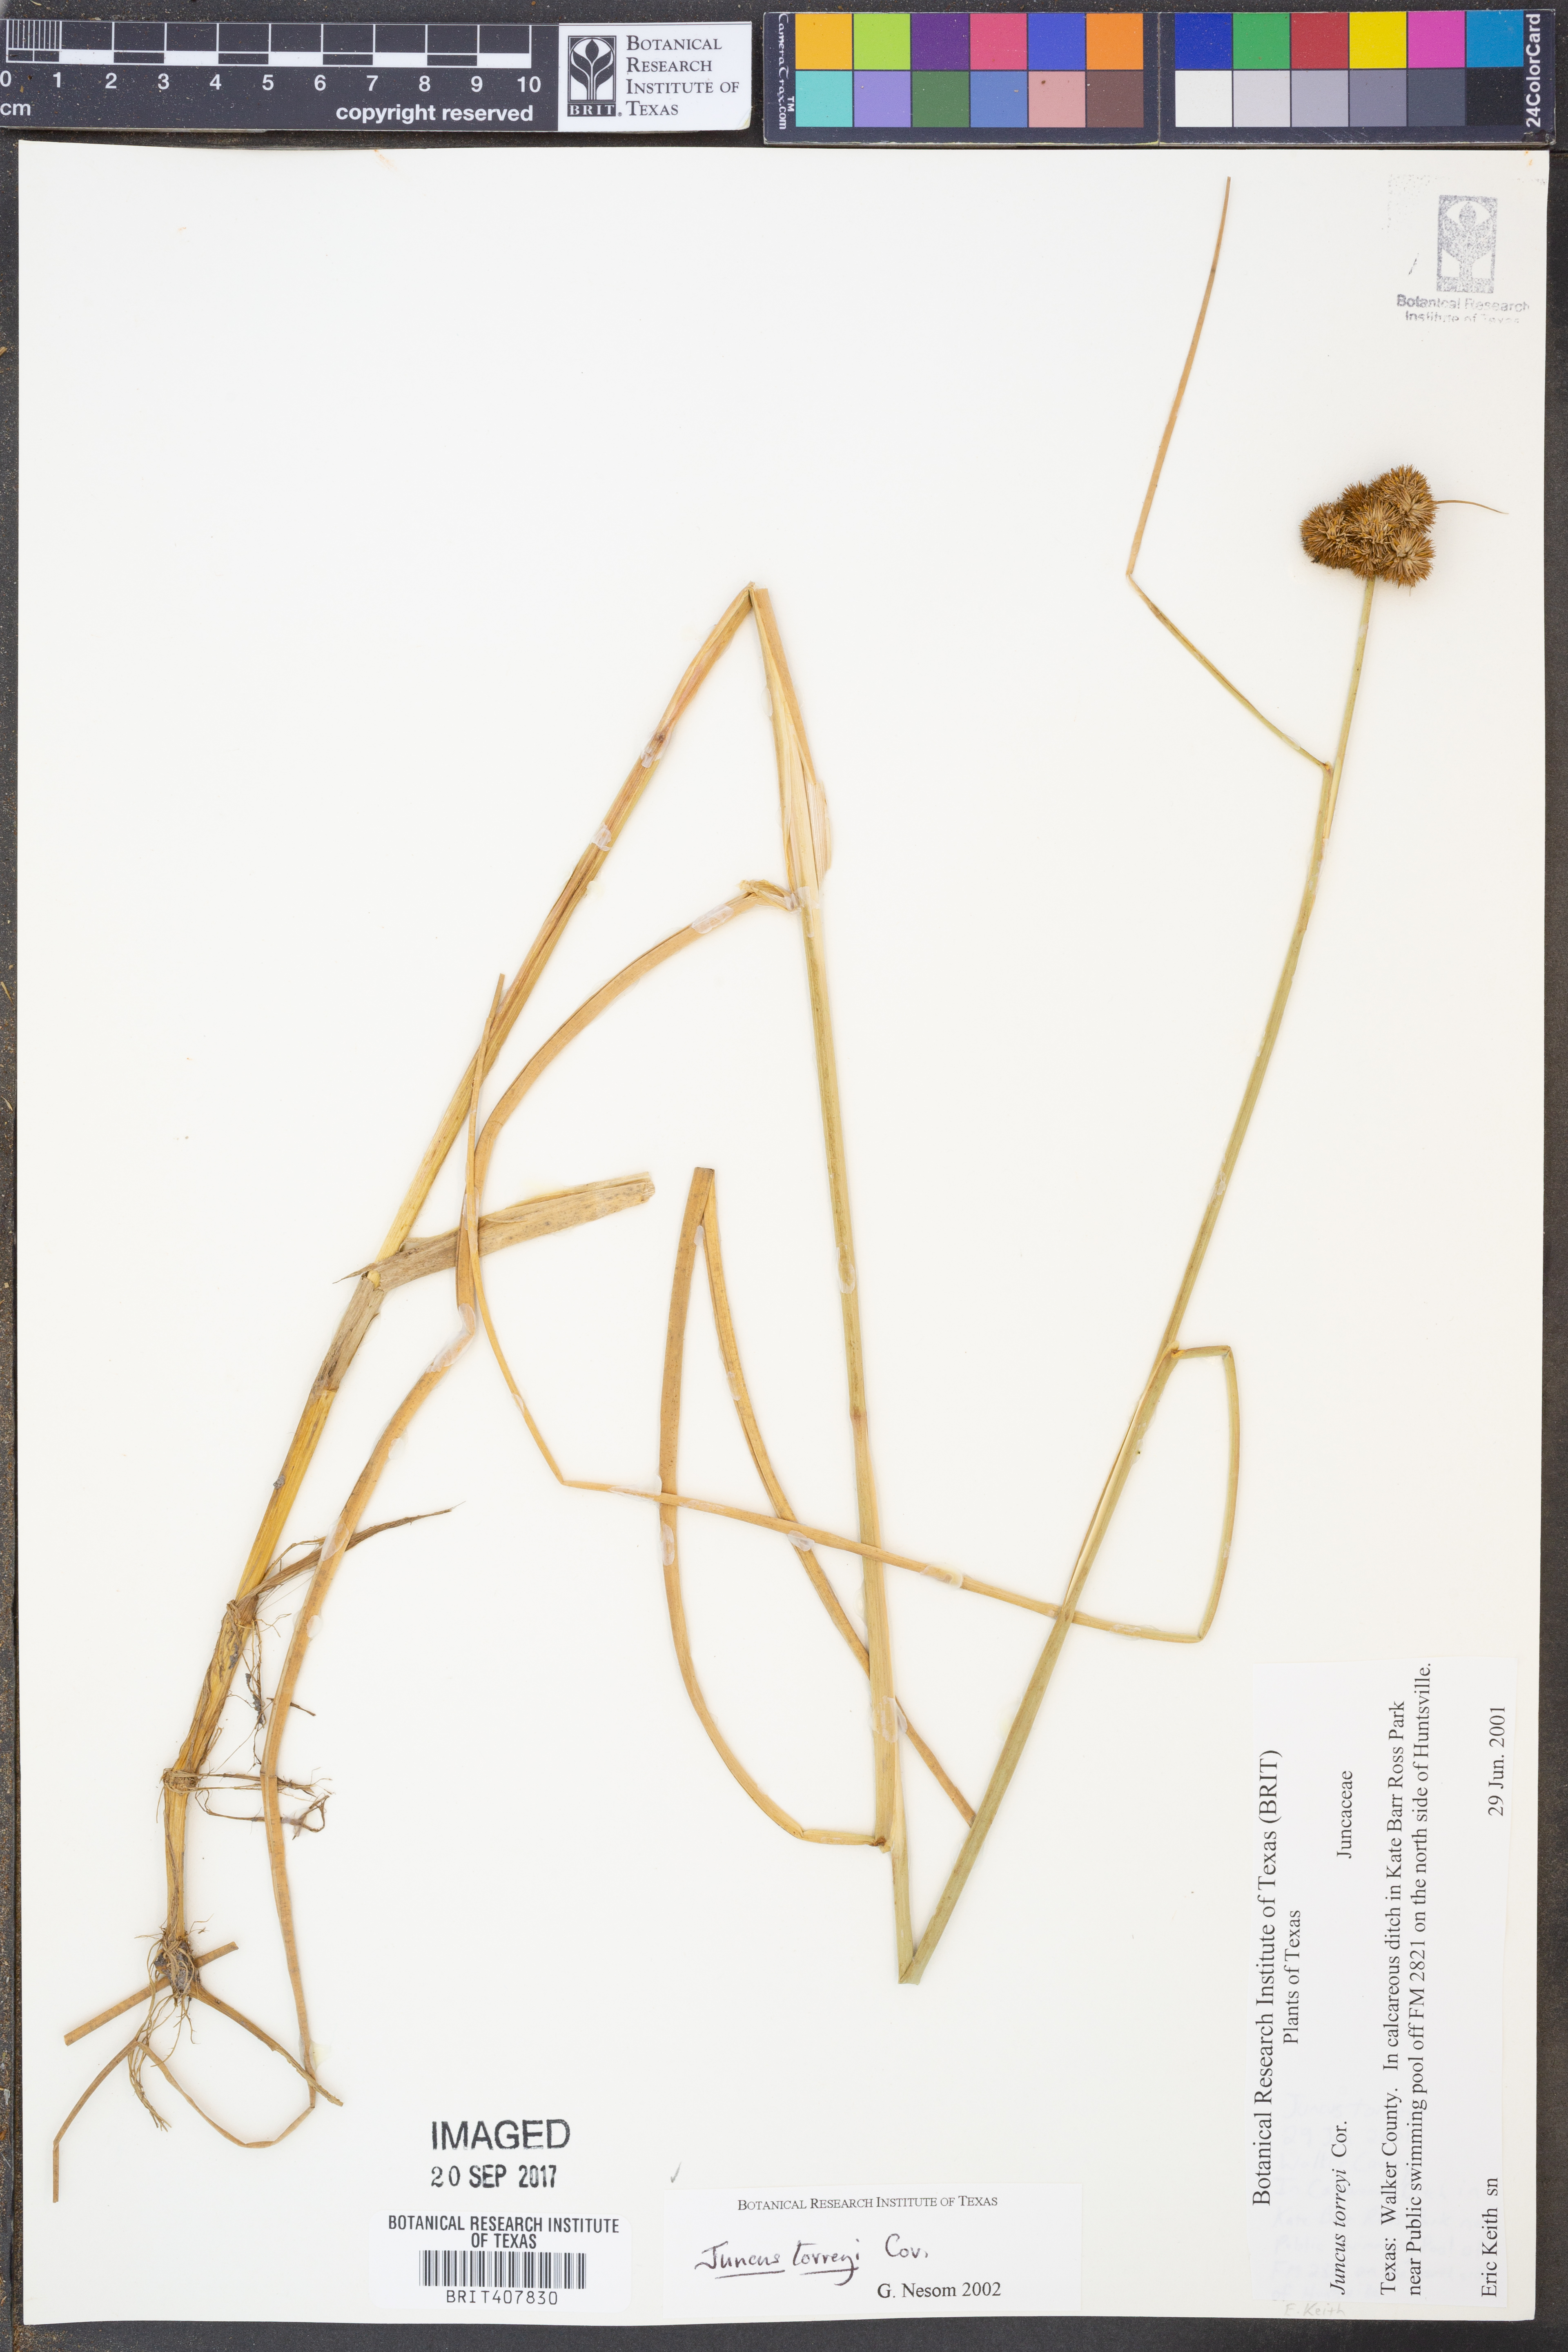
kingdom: Plantae
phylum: Tracheophyta
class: Liliopsida
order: Poales
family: Juncaceae
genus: Juncus
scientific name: Juncus torreyi
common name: Torrey's rush
